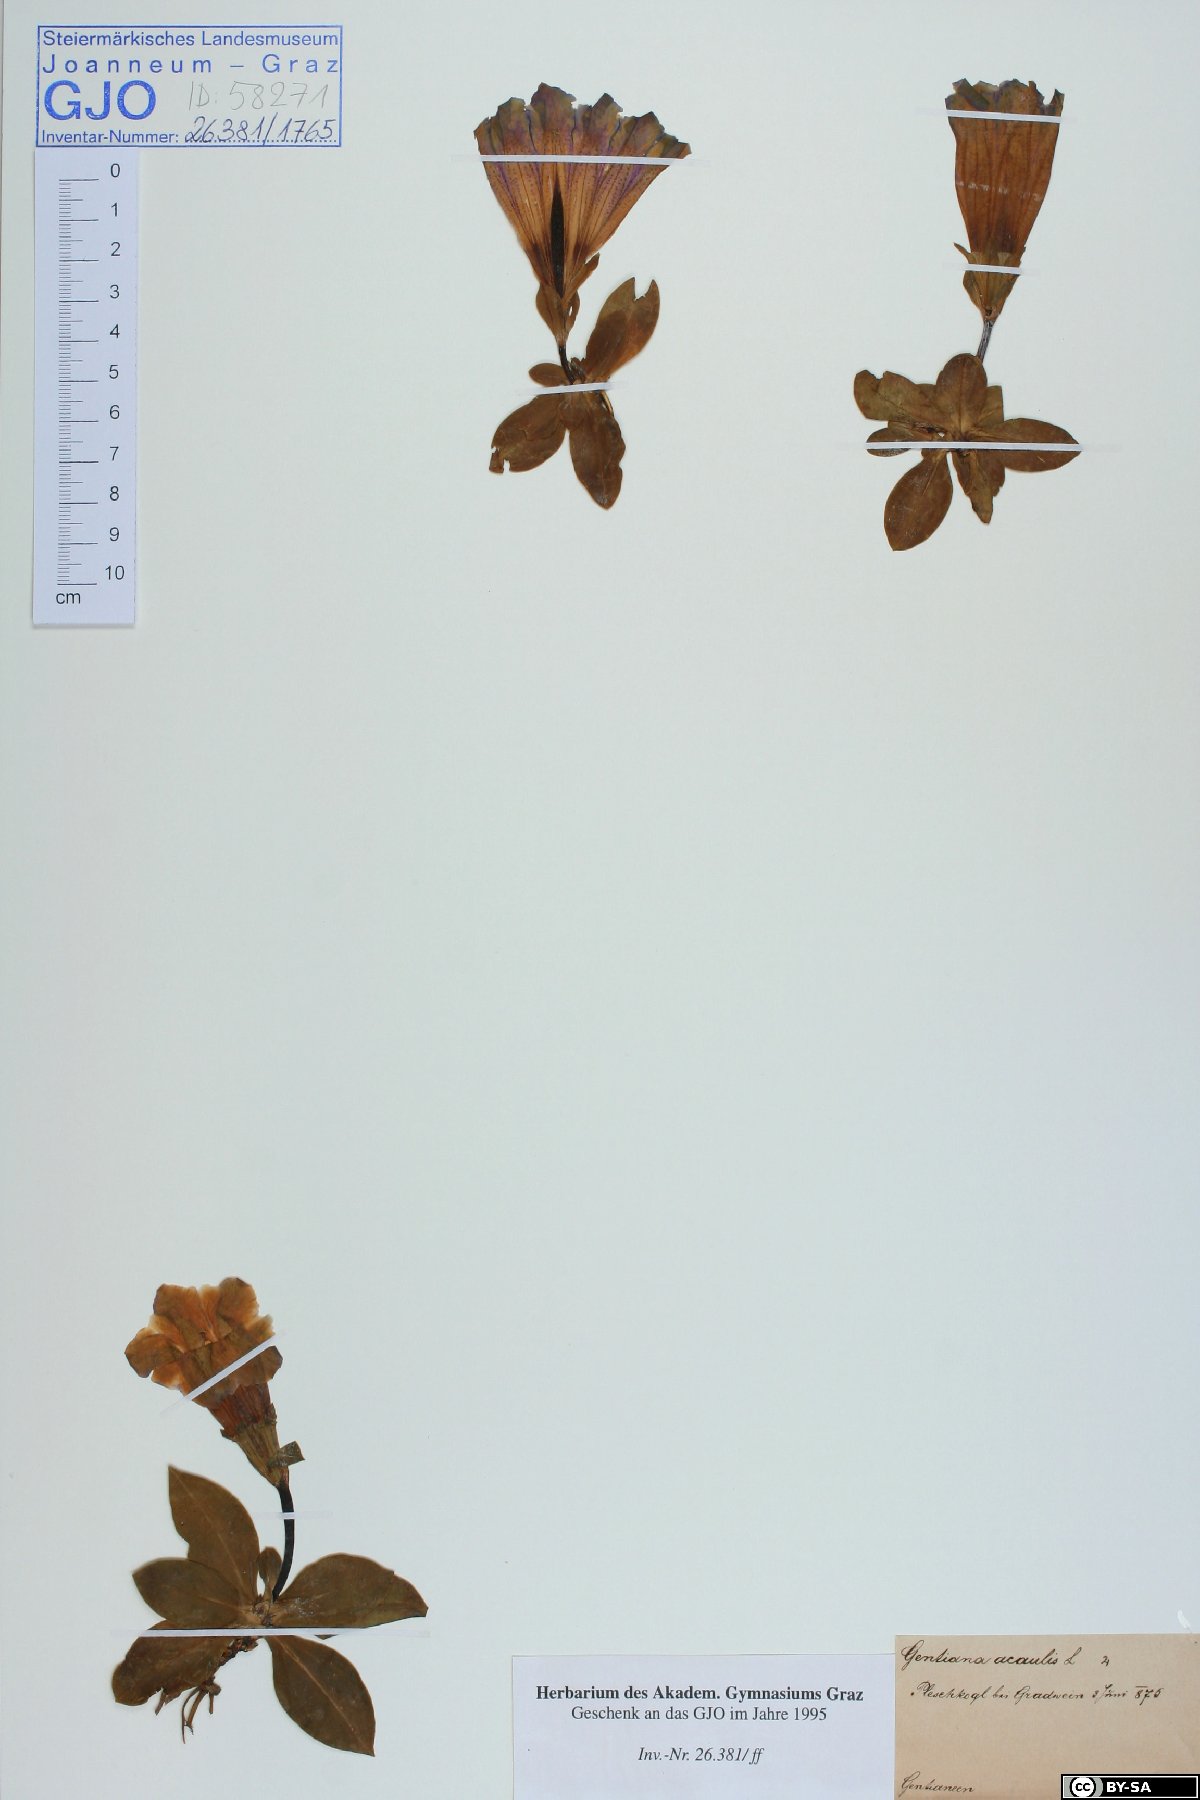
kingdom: Plantae
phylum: Tracheophyta
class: Magnoliopsida
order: Gentianales
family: Gentianaceae
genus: Gentiana
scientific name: Gentiana acaulis
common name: Trumpet gentian
